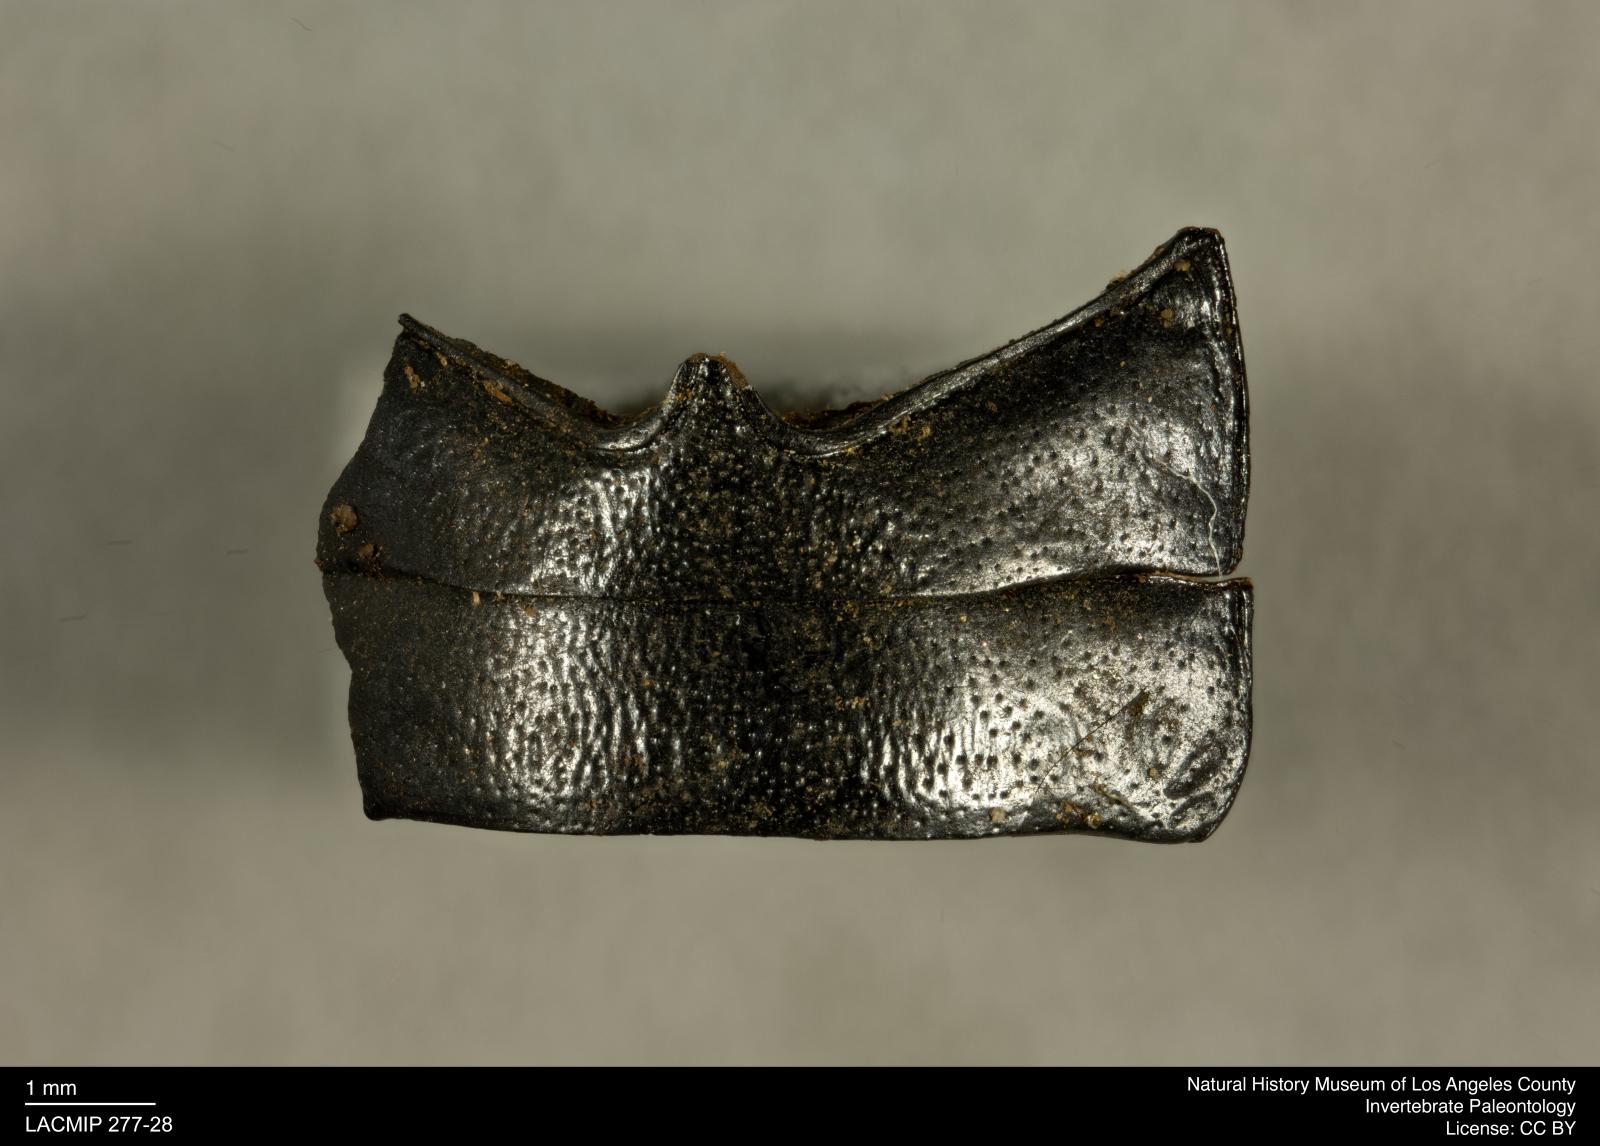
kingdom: Animalia
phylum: Arthropoda
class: Insecta
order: Coleoptera
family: Tenebrionidae
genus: Coniontis
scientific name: Coniontis abdominalis
